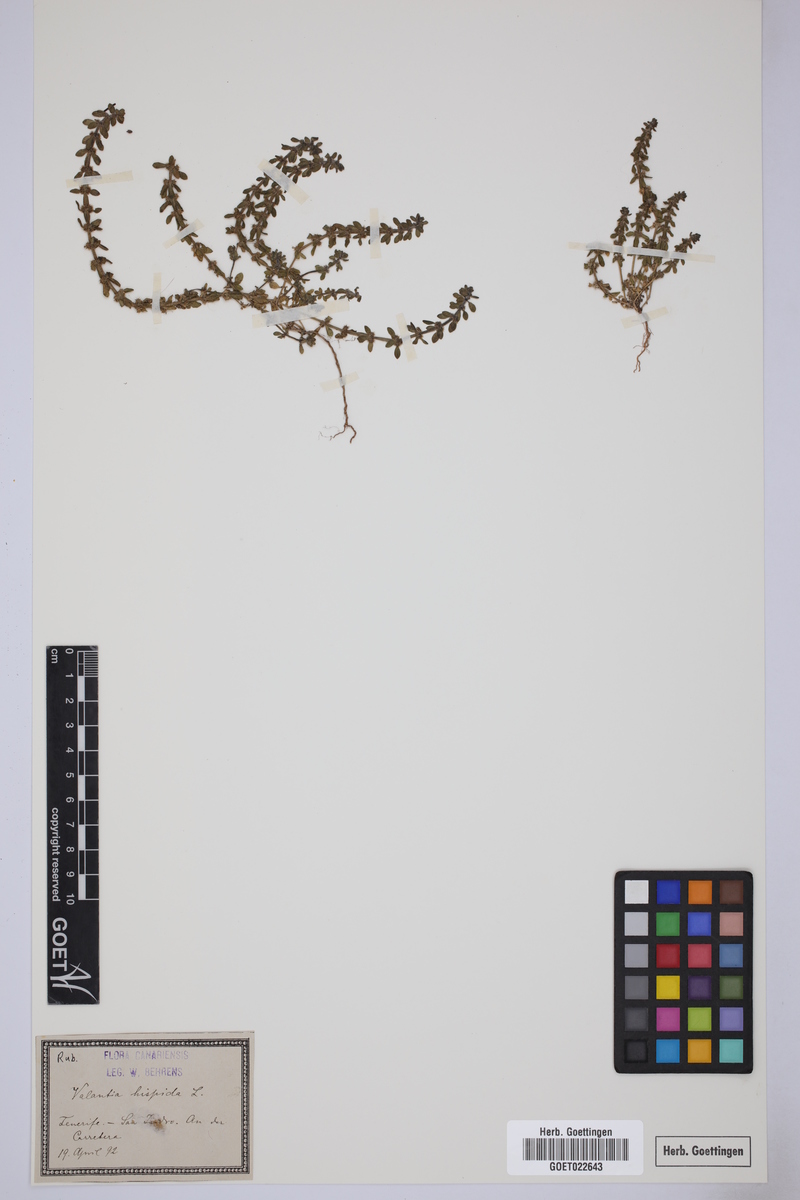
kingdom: Plantae
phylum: Tracheophyta
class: Magnoliopsida
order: Gentianales
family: Rubiaceae
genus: Valantia
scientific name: Valantia hispida
